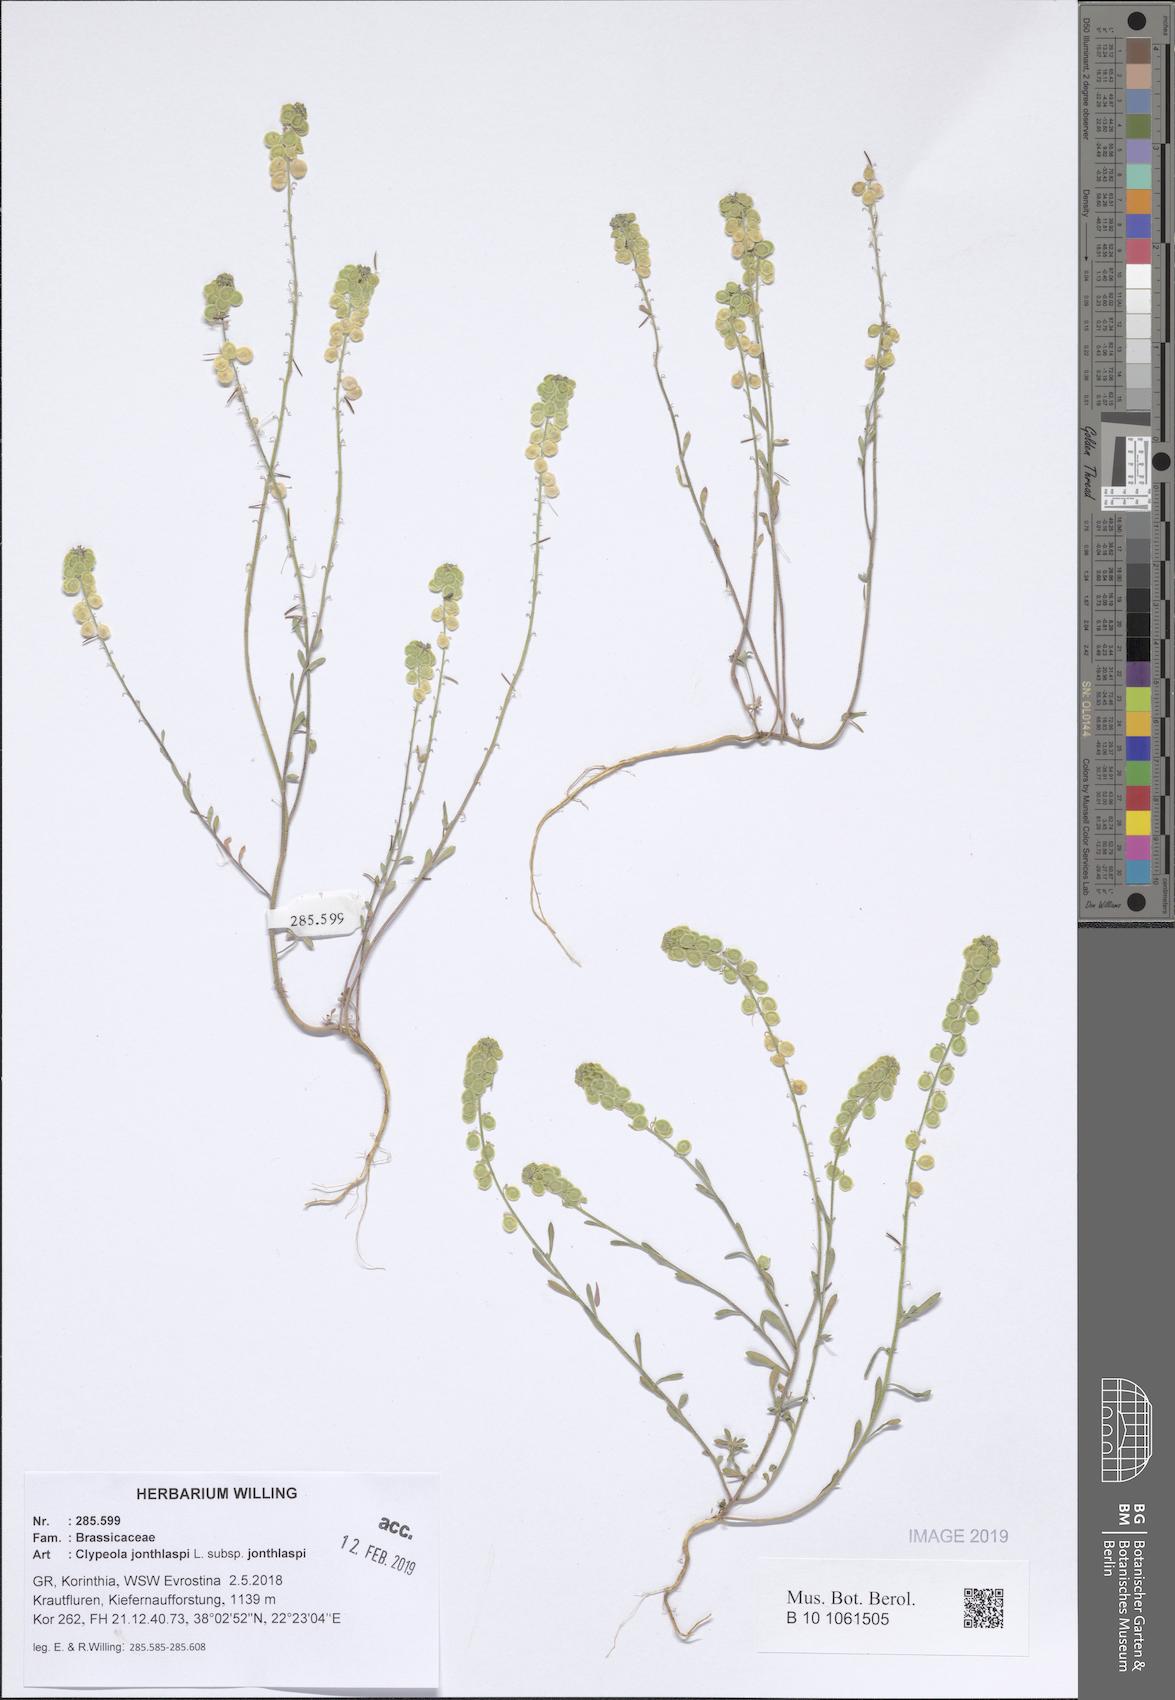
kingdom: Plantae
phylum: Tracheophyta
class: Magnoliopsida
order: Brassicales
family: Brassicaceae
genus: Clypeola
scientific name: Clypeola jonthlaspi
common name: Disk cress
